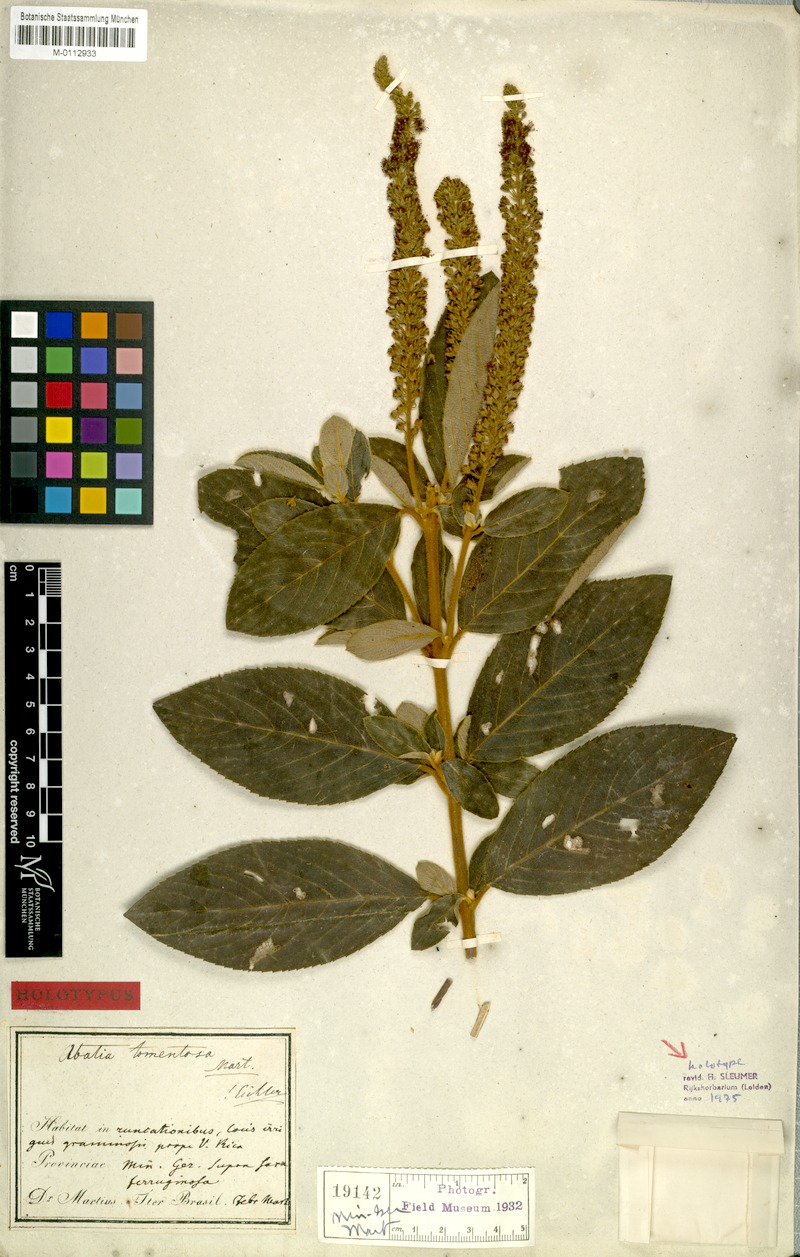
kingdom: Plantae
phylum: Tracheophyta
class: Magnoliopsida
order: Malpighiales
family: Salicaceae
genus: Abatia
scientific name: Abatia americana
